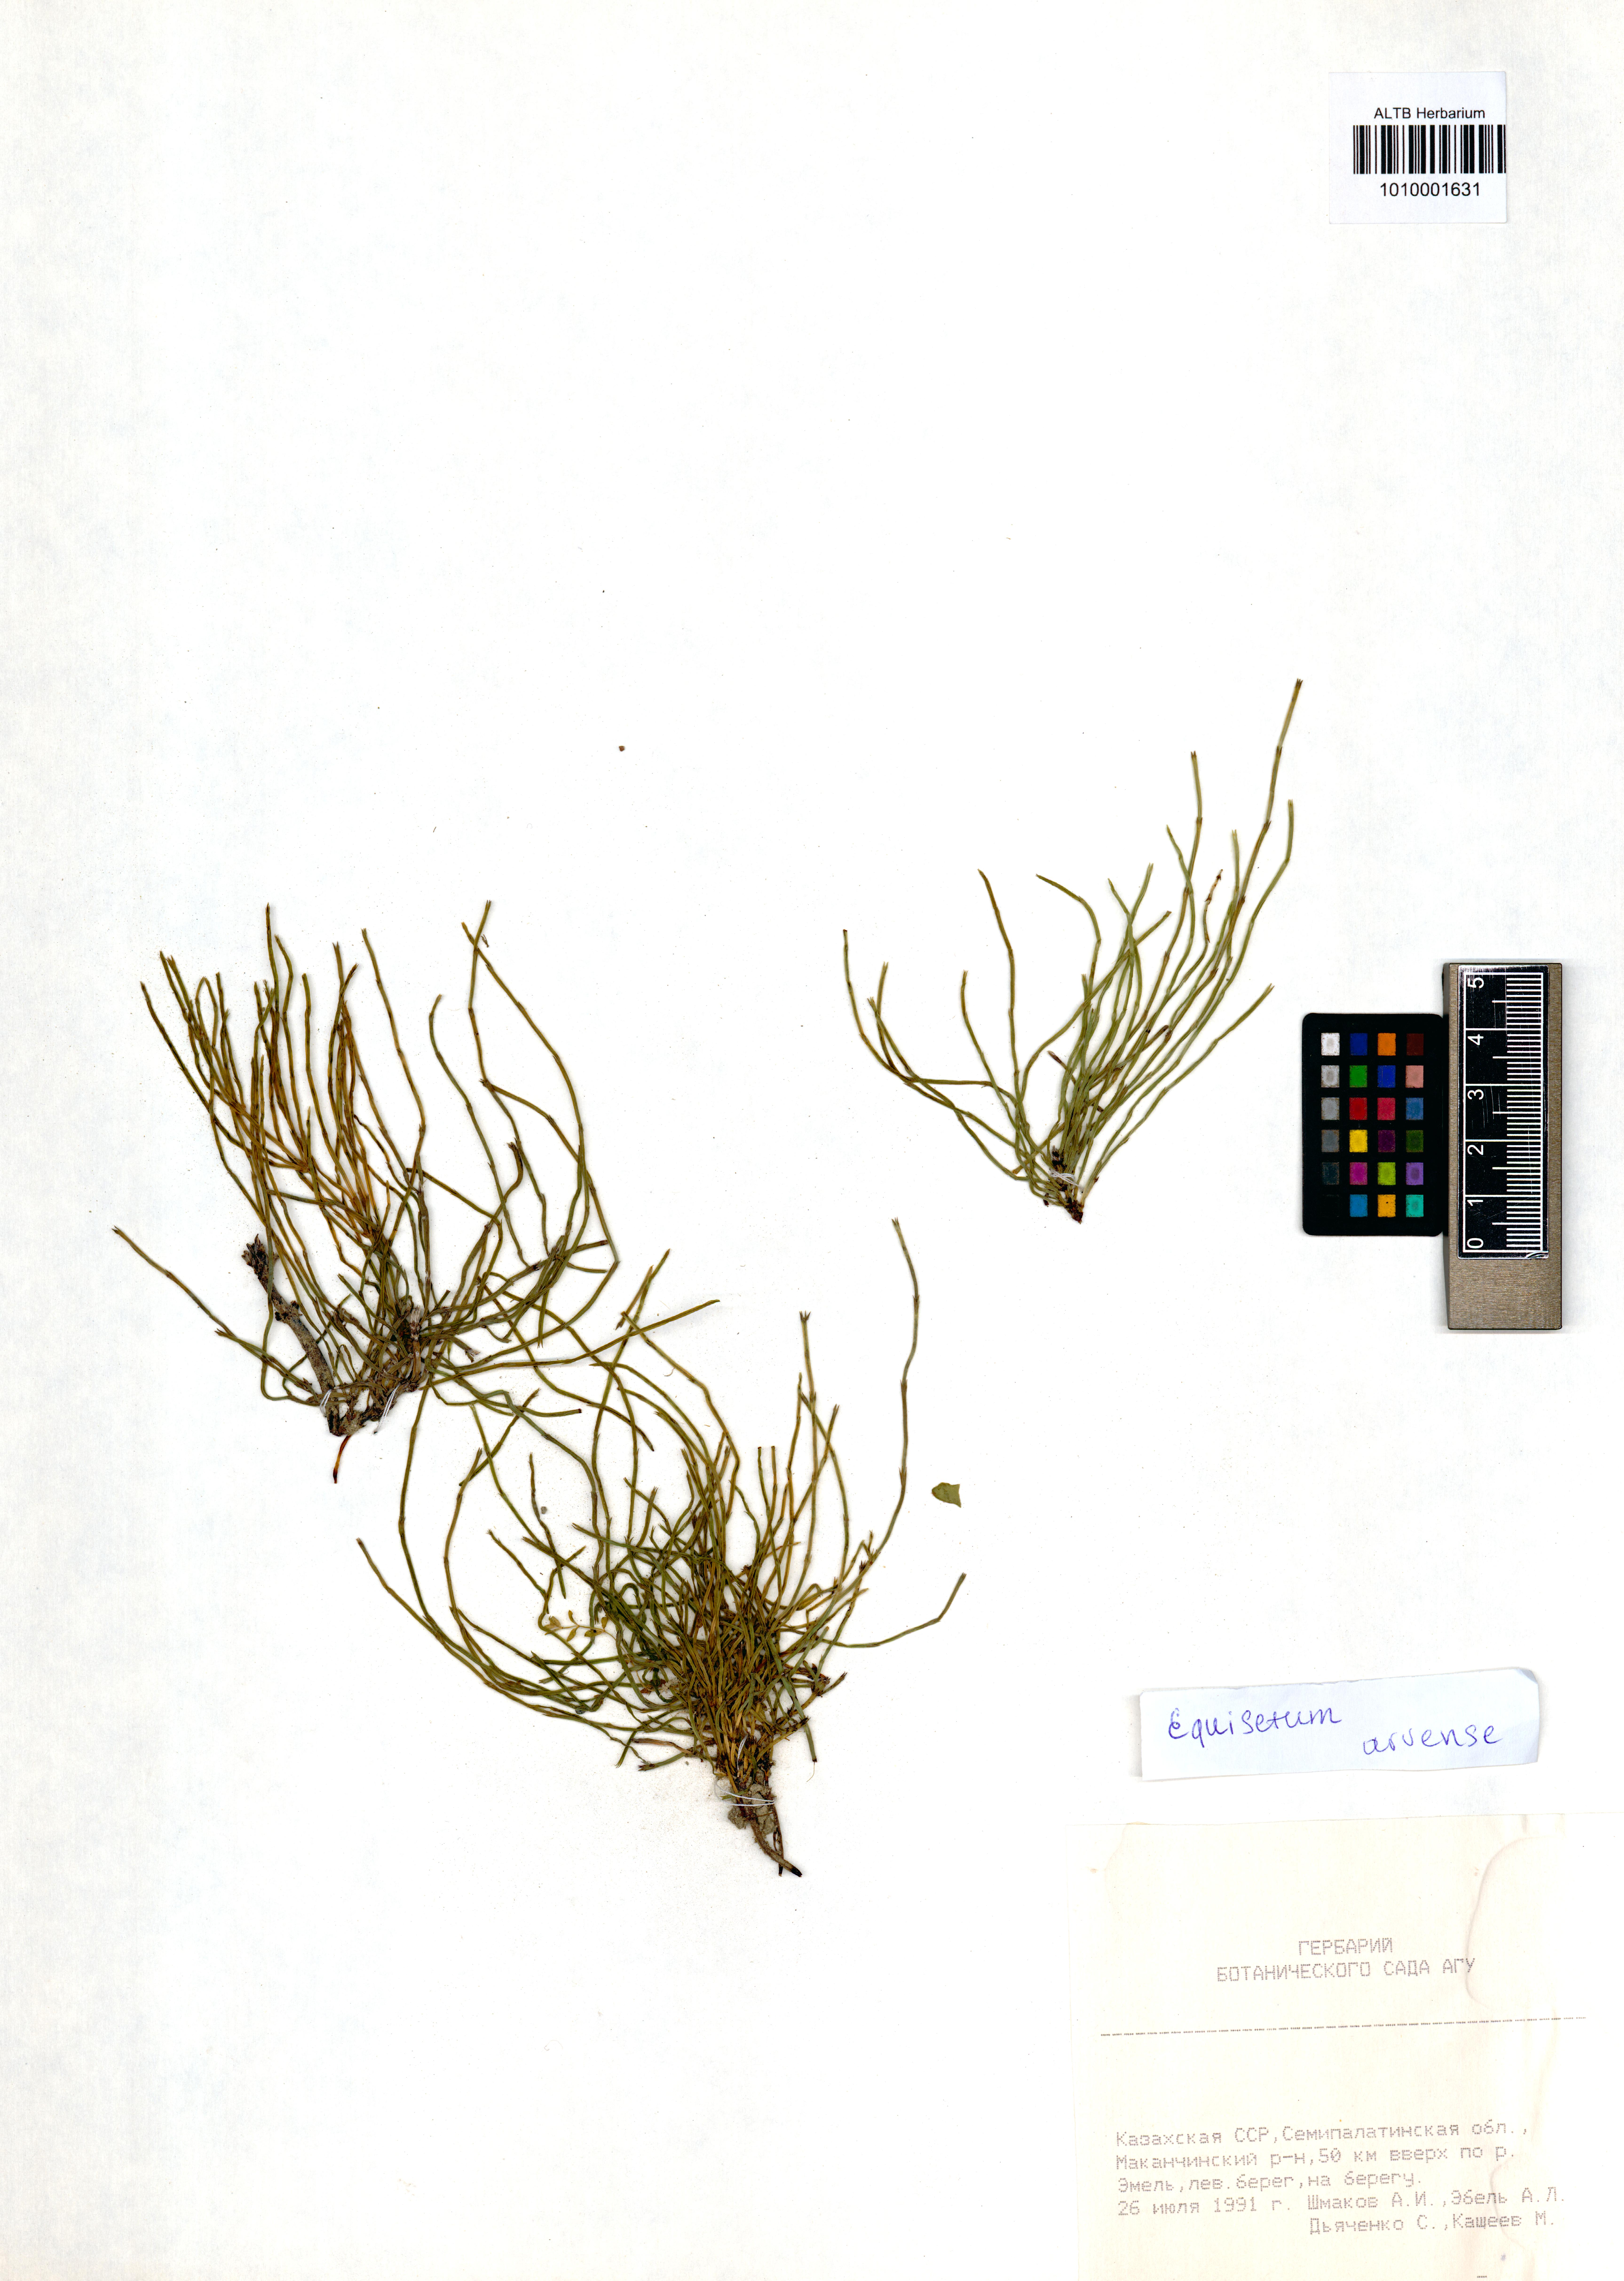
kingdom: Plantae
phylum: Tracheophyta
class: Polypodiopsida
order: Equisetales
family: Equisetaceae
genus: Equisetum
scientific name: Equisetum arvense
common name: Field horsetail
